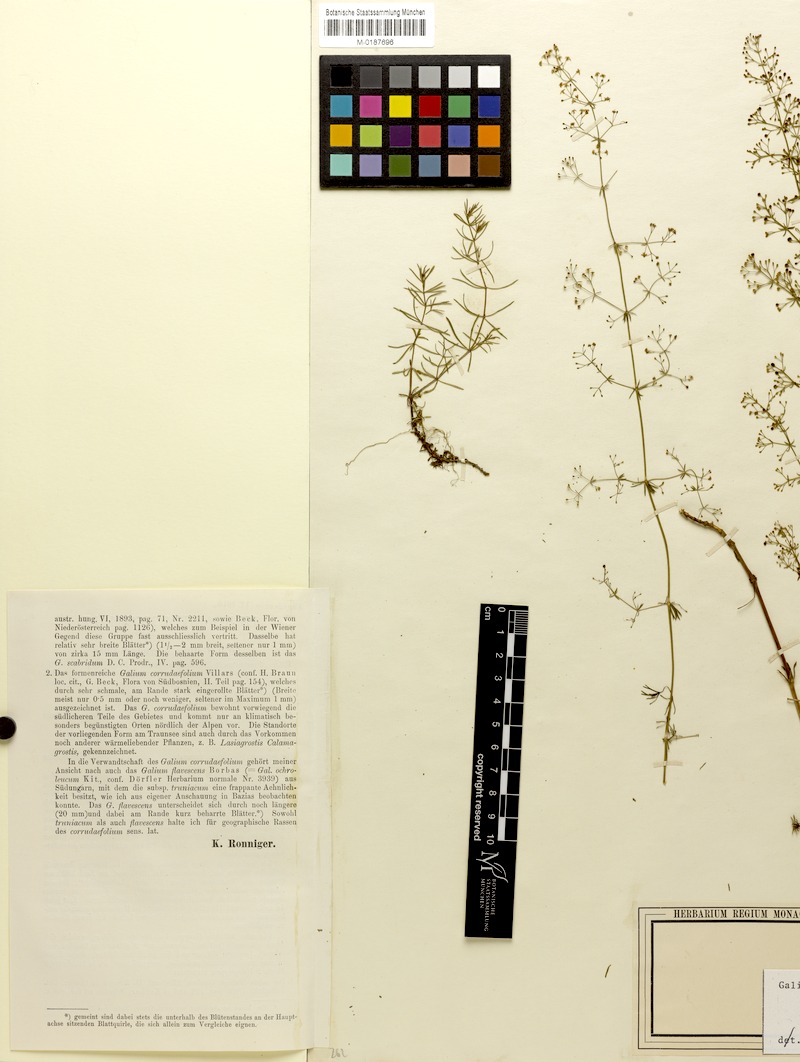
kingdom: Plantae
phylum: Tracheophyta
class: Magnoliopsida
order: Gentianales
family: Rubiaceae
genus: Galium
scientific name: Galium truniacum
